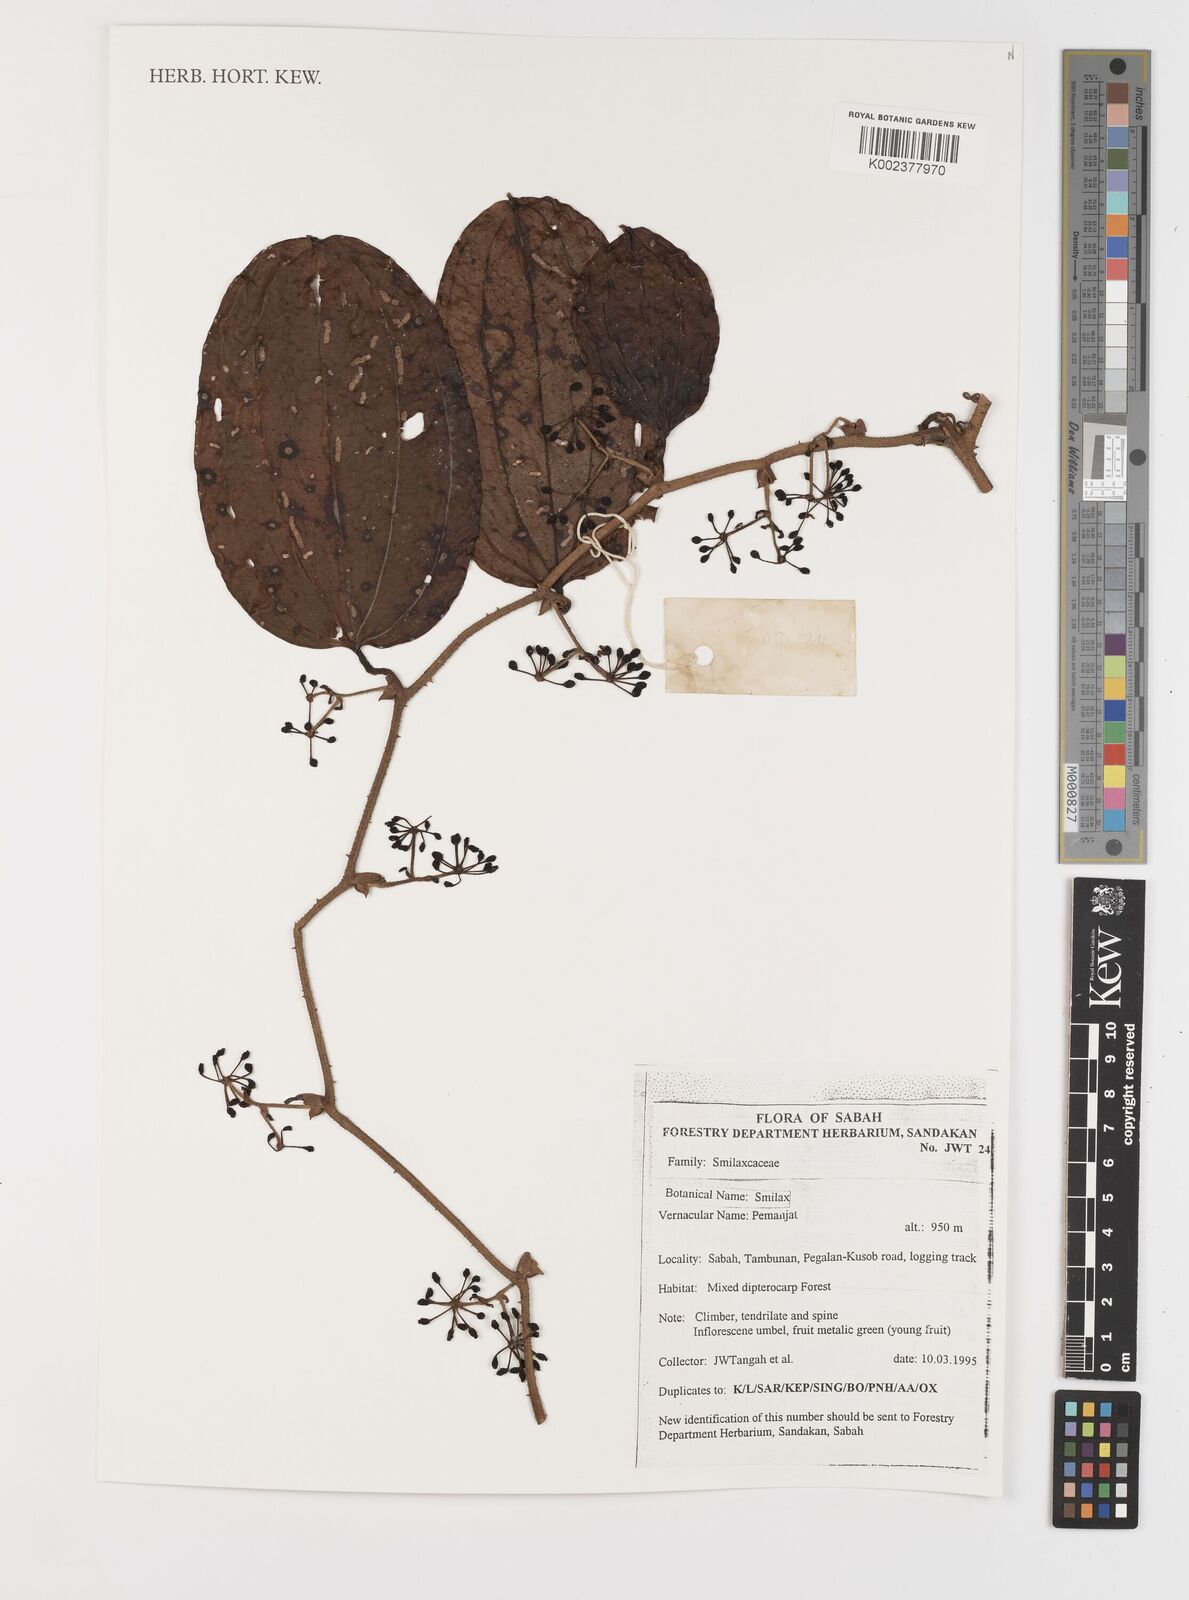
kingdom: Plantae
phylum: Tracheophyta
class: Liliopsida
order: Liliales
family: Smilacaceae
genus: Smilax
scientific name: Smilax
